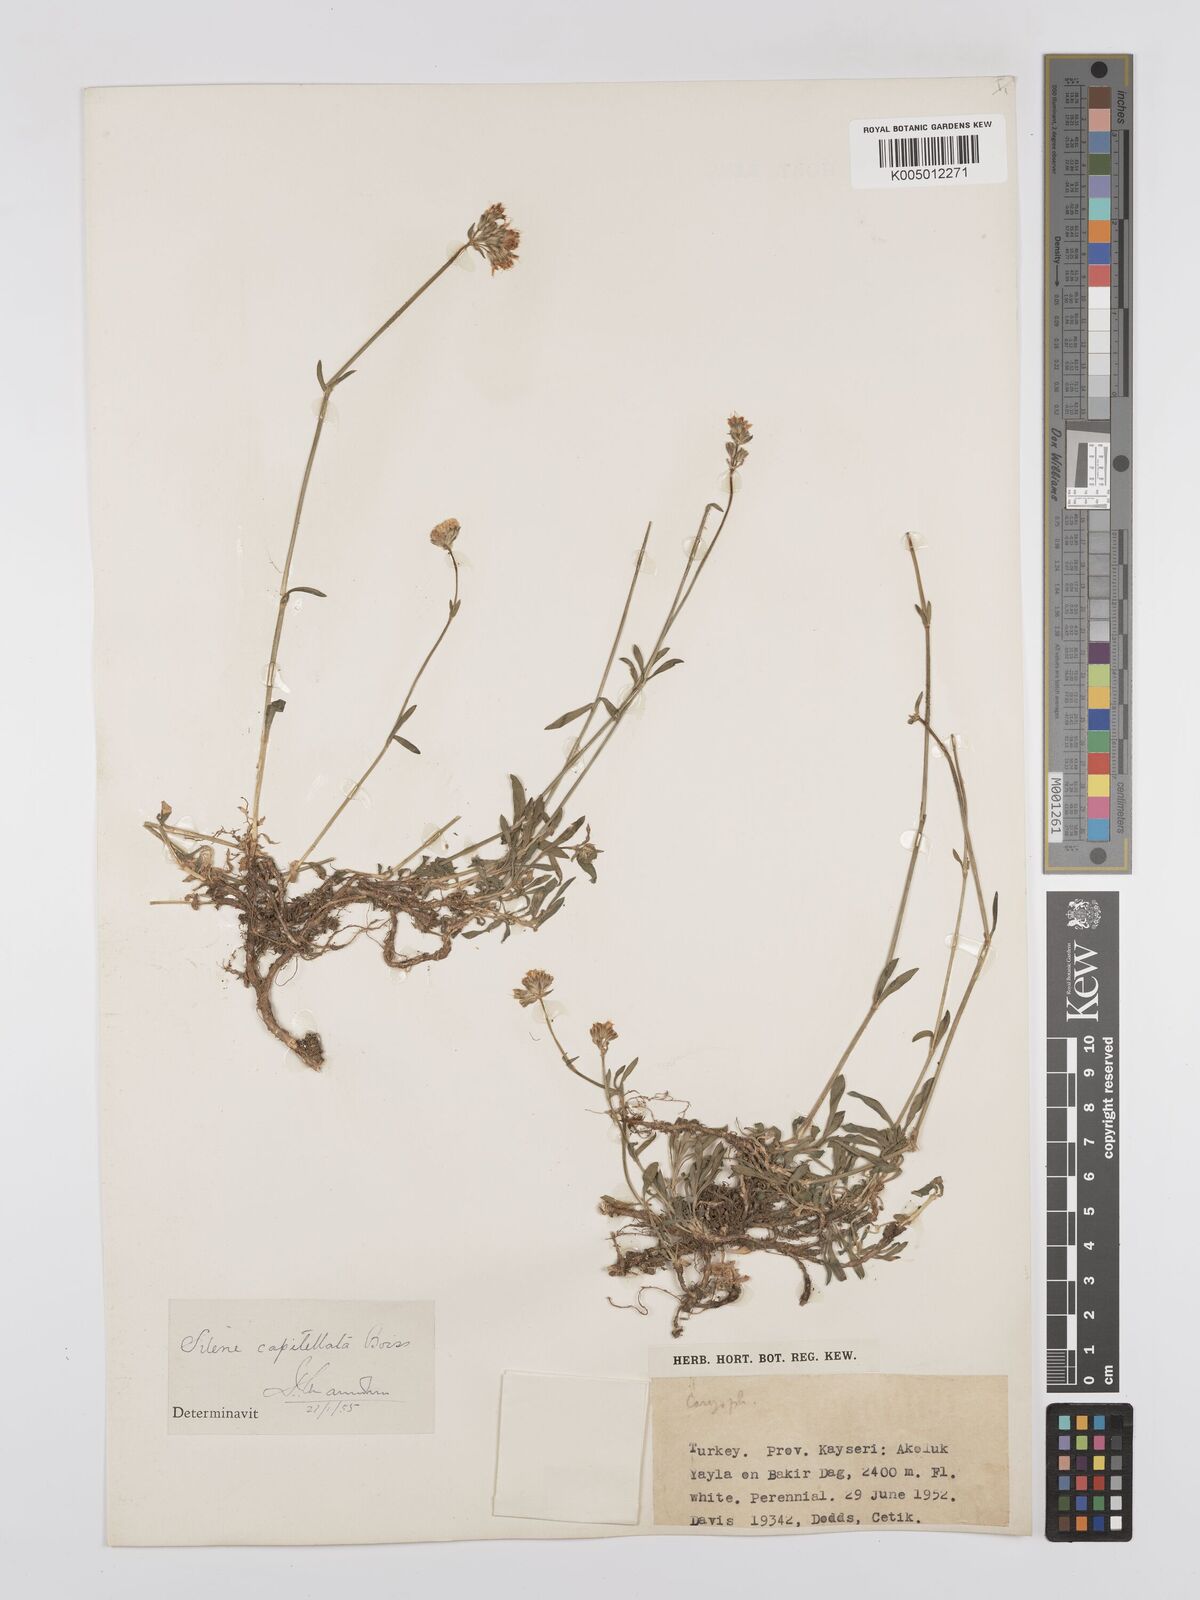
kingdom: Plantae
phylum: Tracheophyta
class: Magnoliopsida
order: Caryophyllales
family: Caryophyllaceae
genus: Silene
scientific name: Silene capitellata
